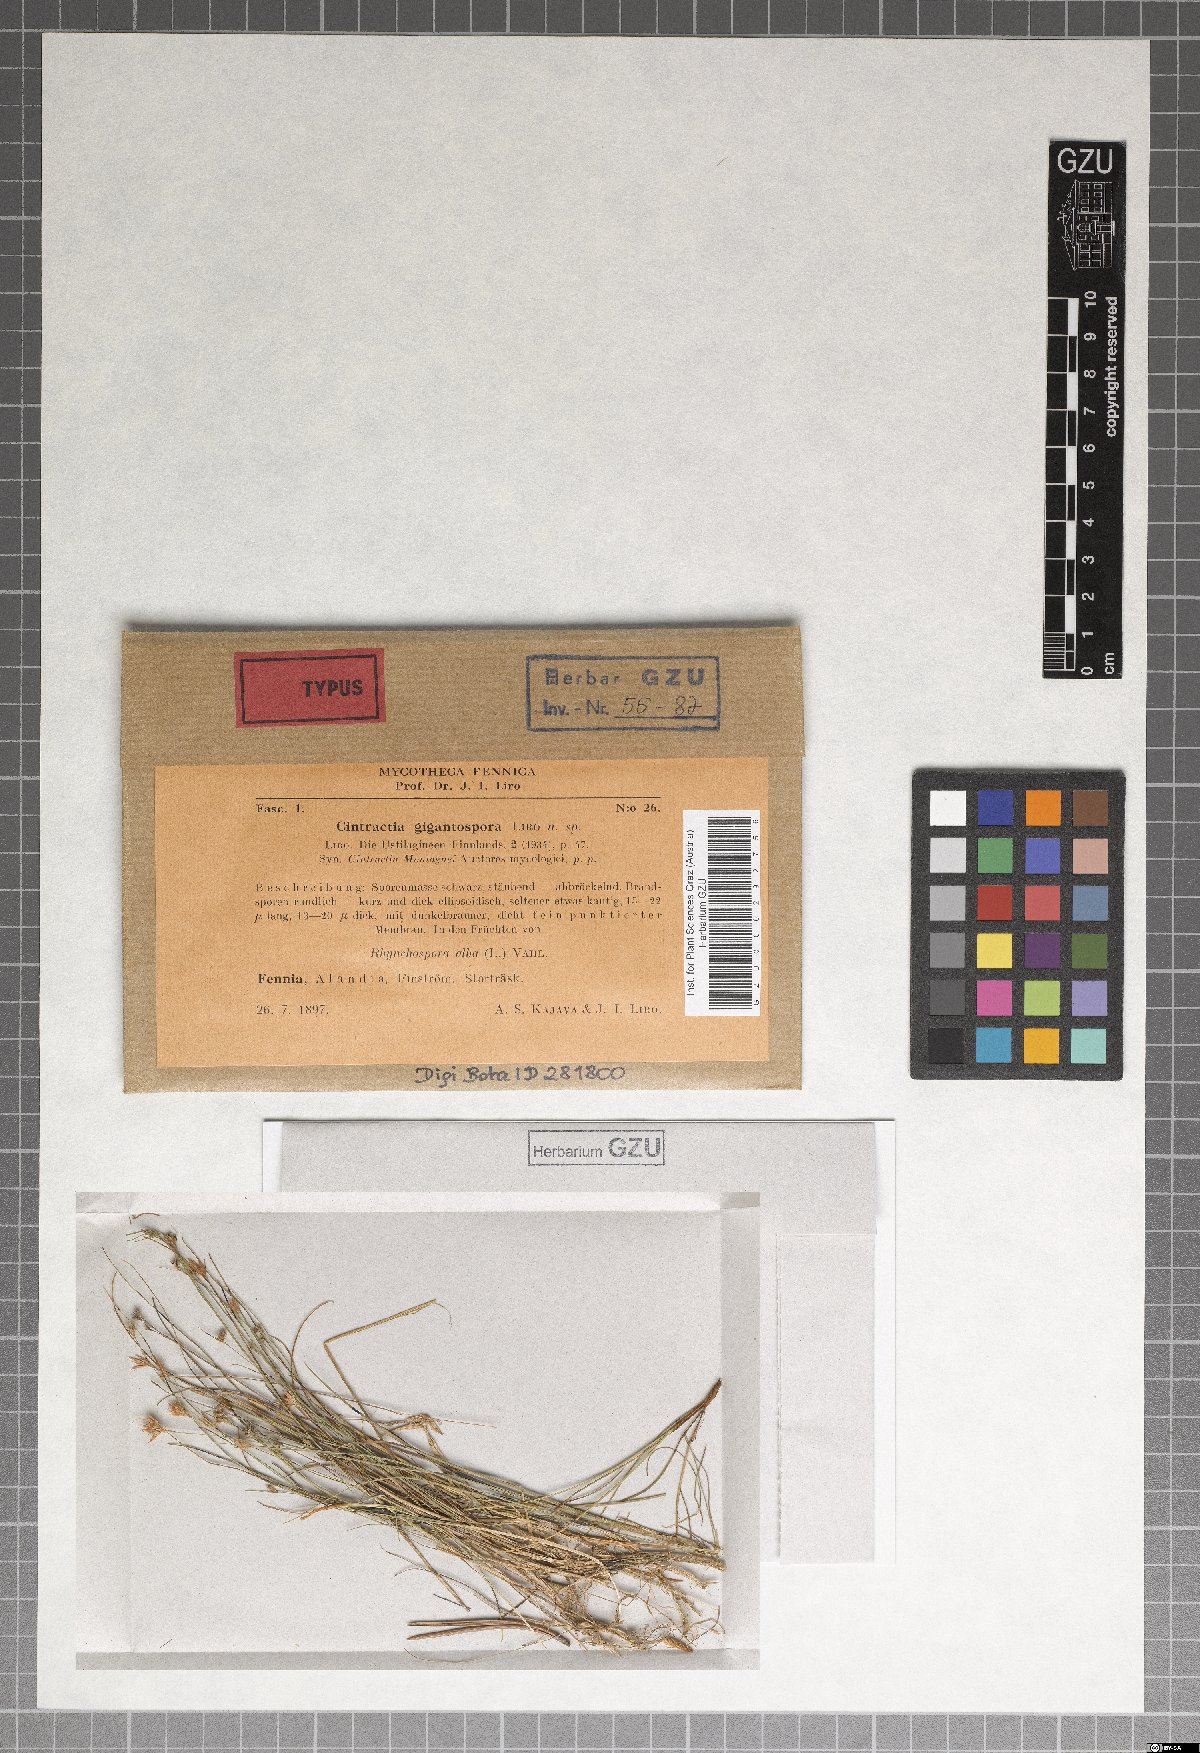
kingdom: Fungi
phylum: Basidiomycota
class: Ustilaginomycetes
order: Ustilaginales
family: Anthracoideaceae
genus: Ustanciosporium
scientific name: Ustanciosporium gigantosporum
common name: White beak-sedge smut
